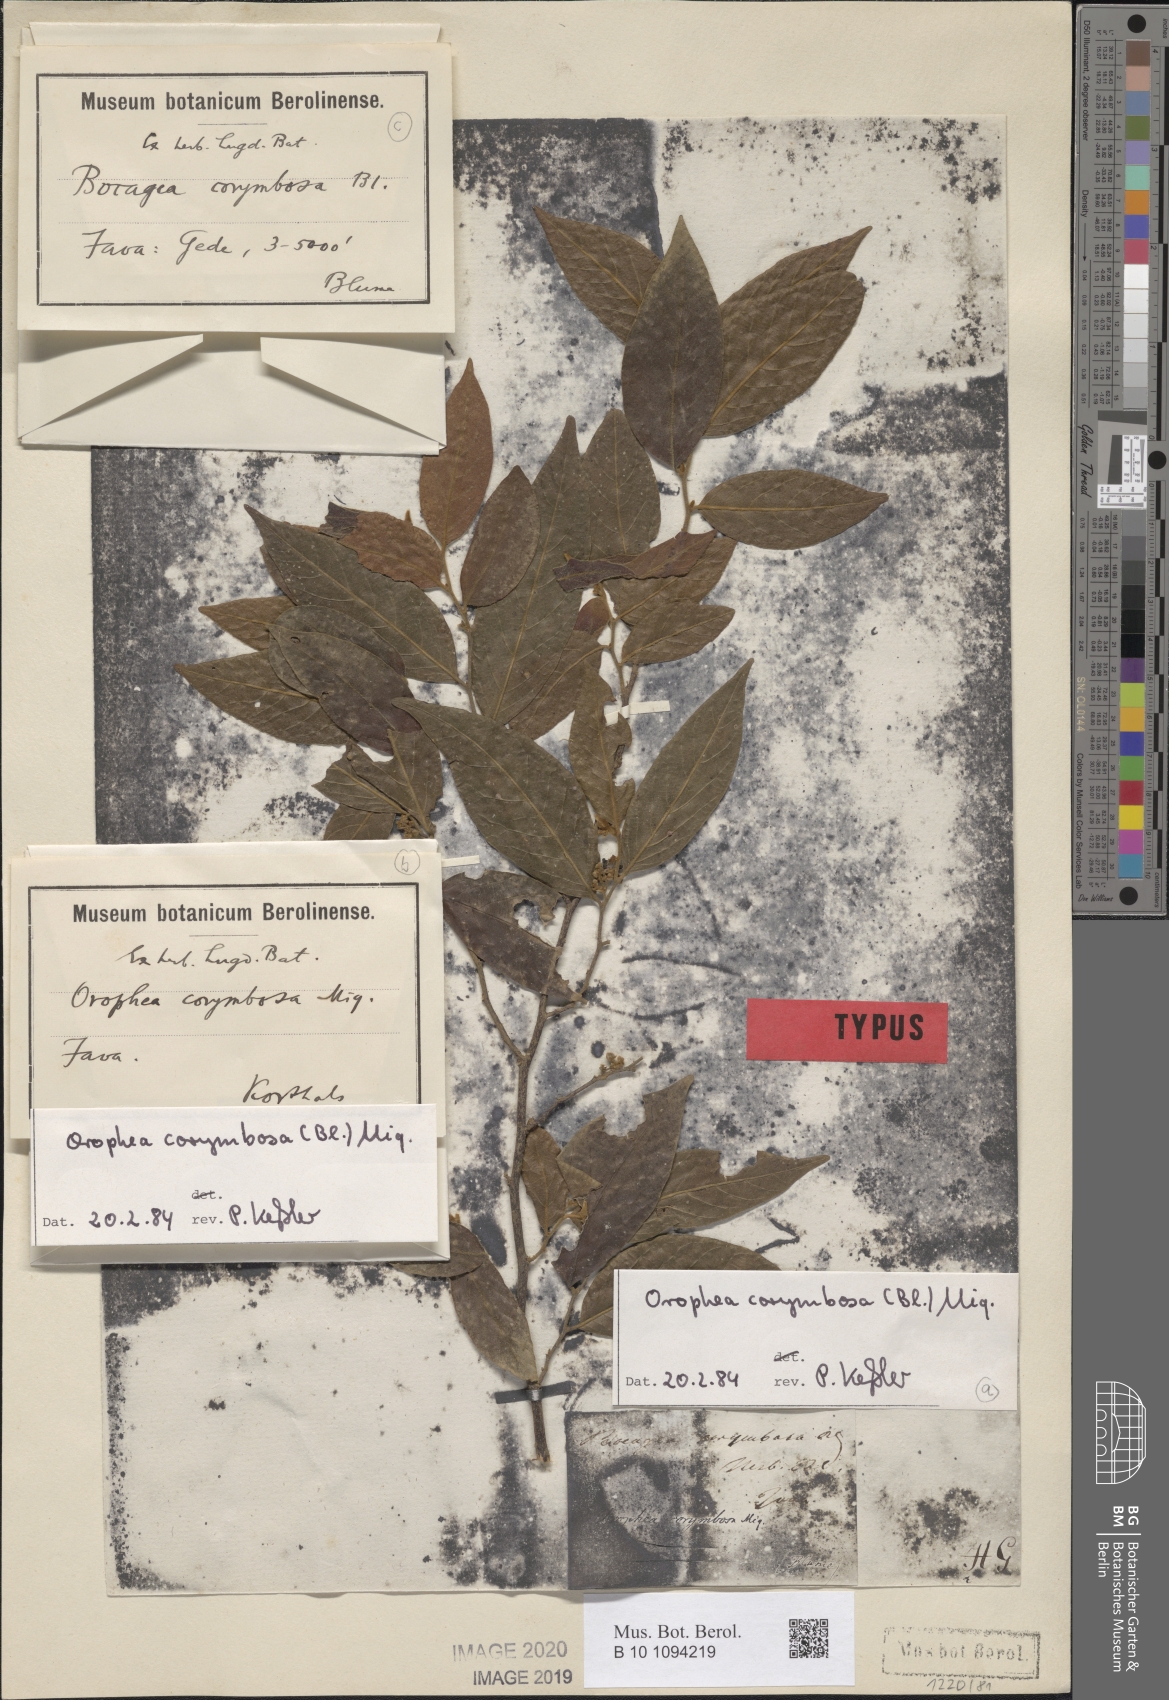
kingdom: Plantae
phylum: Tracheophyta
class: Magnoliopsida
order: Magnoliales
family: Annonaceae
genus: Orophea
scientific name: Orophea corymbosa
